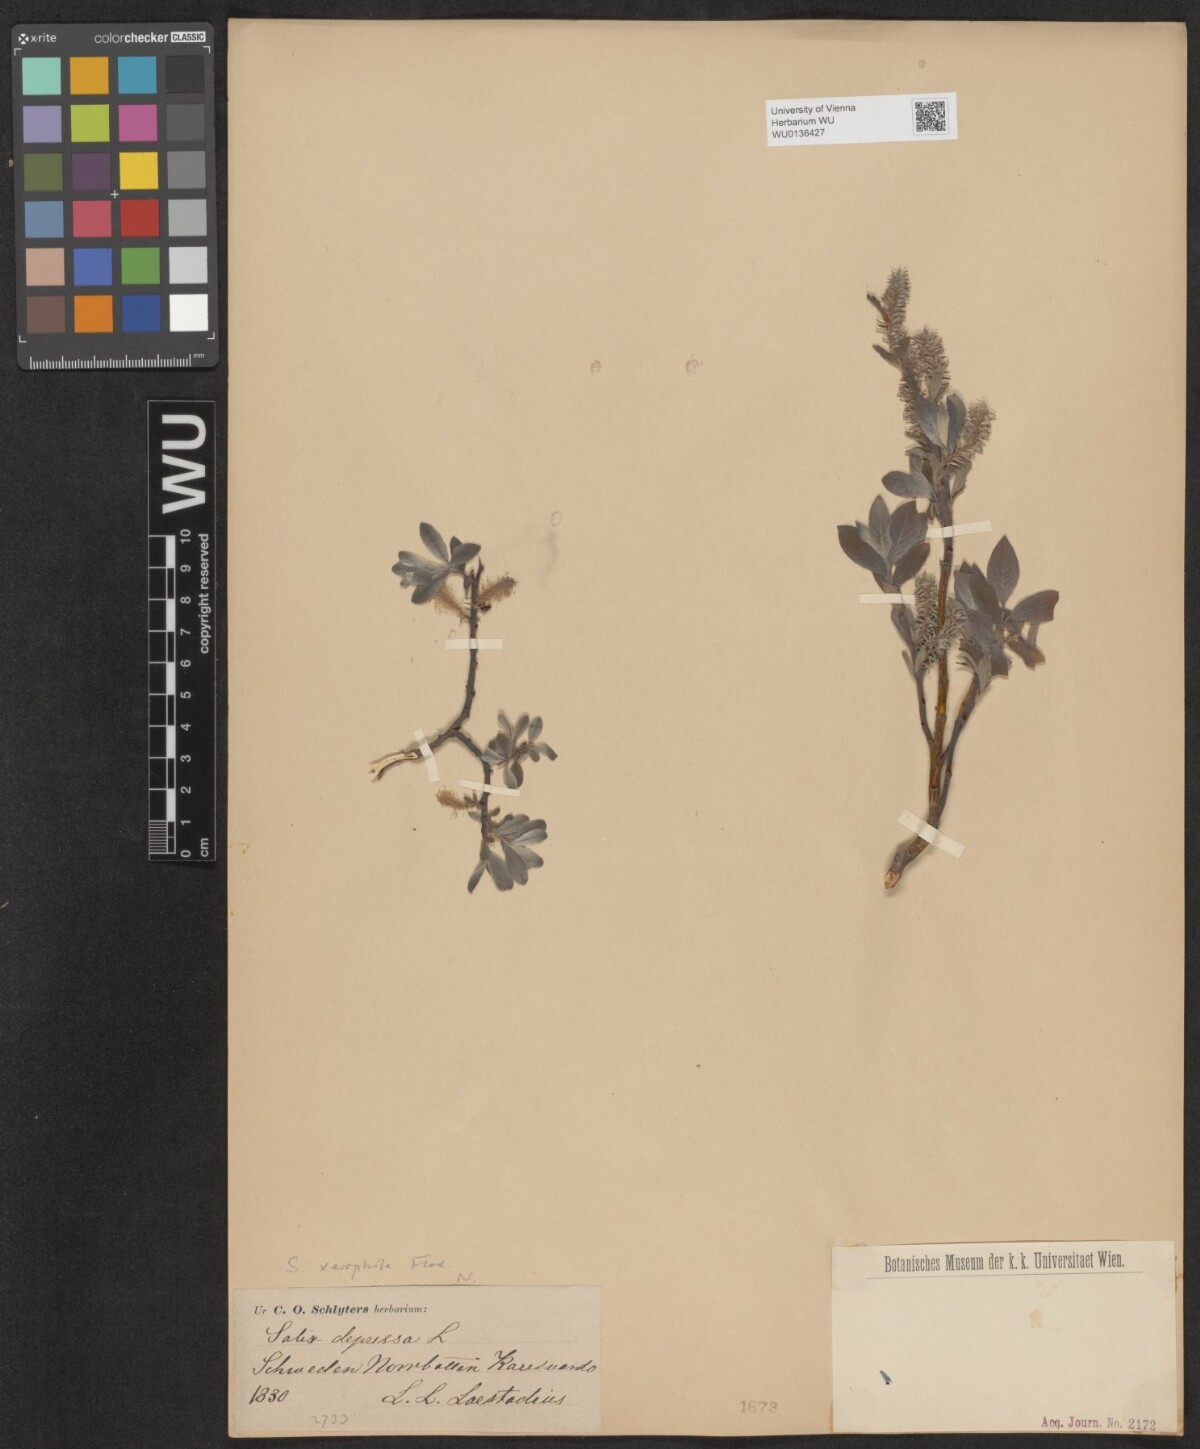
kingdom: Plantae
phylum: Tracheophyta
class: Magnoliopsida
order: Malpighiales
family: Salicaceae
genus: Salix
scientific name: Salix lanata
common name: Woolly willow
